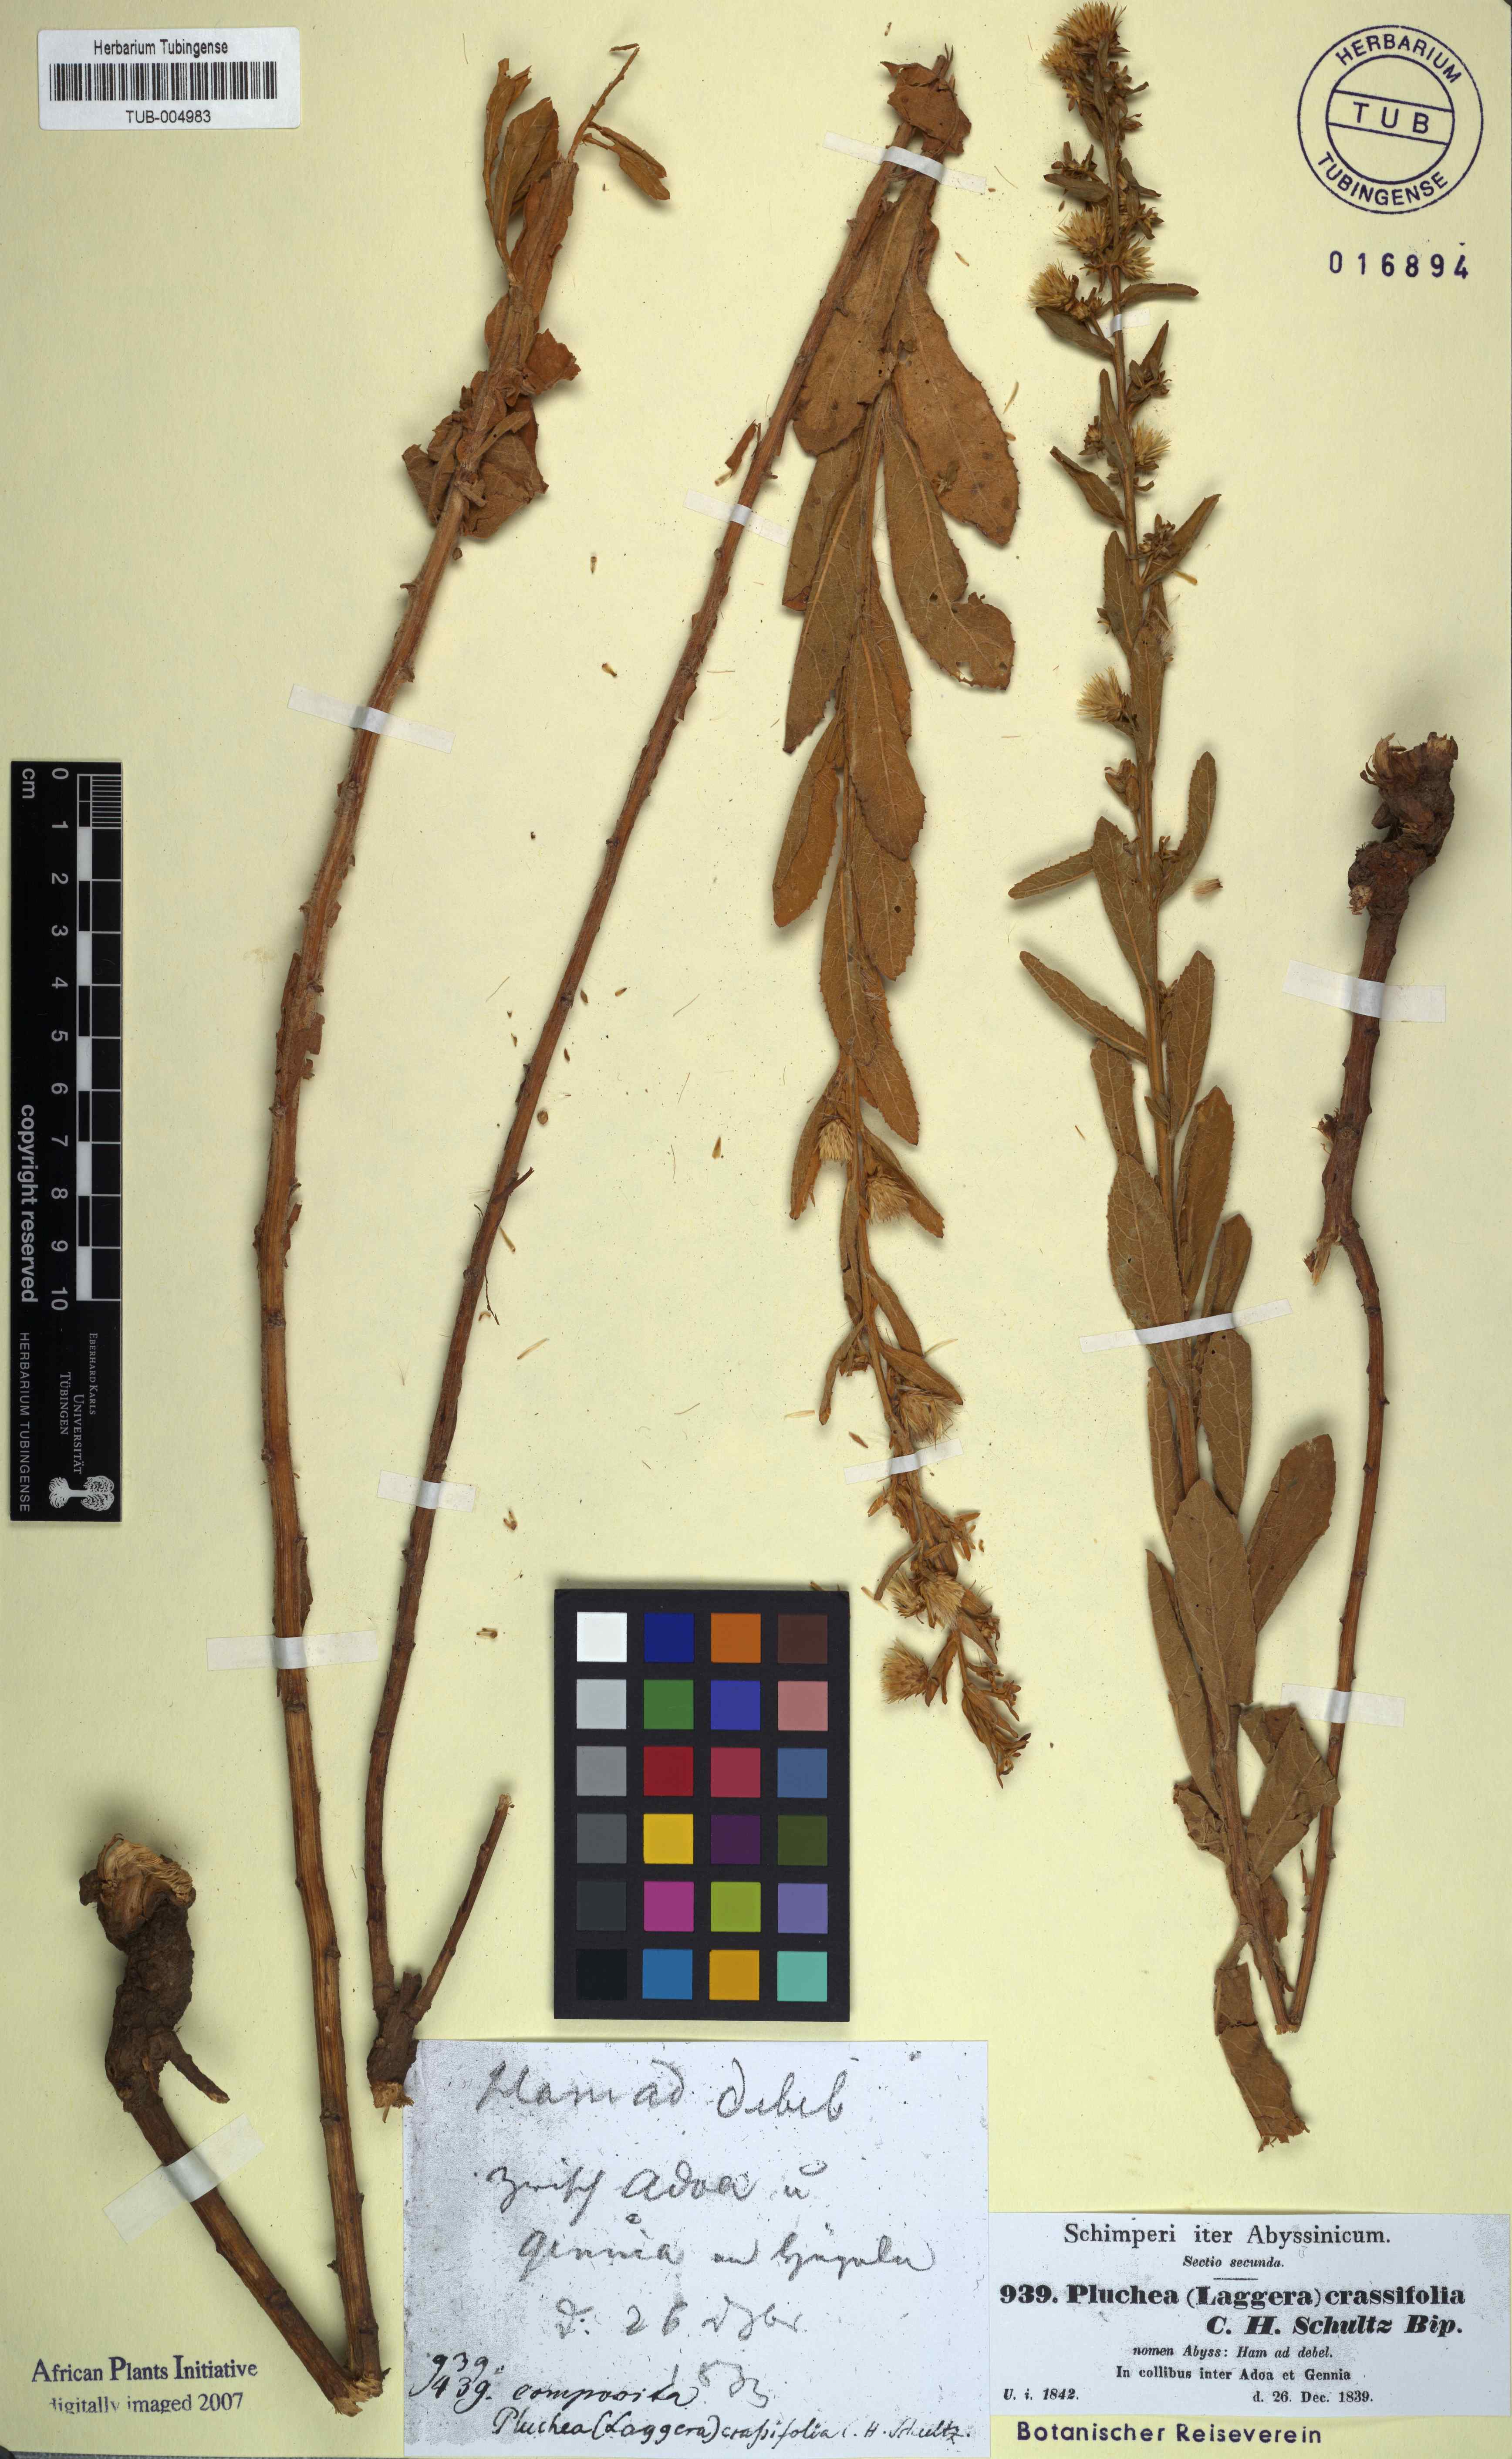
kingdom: Plantae
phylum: Tracheophyta
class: Magnoliopsida
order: Asterales
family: Asteraceae
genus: Laggera
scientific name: Laggera crassifolia
